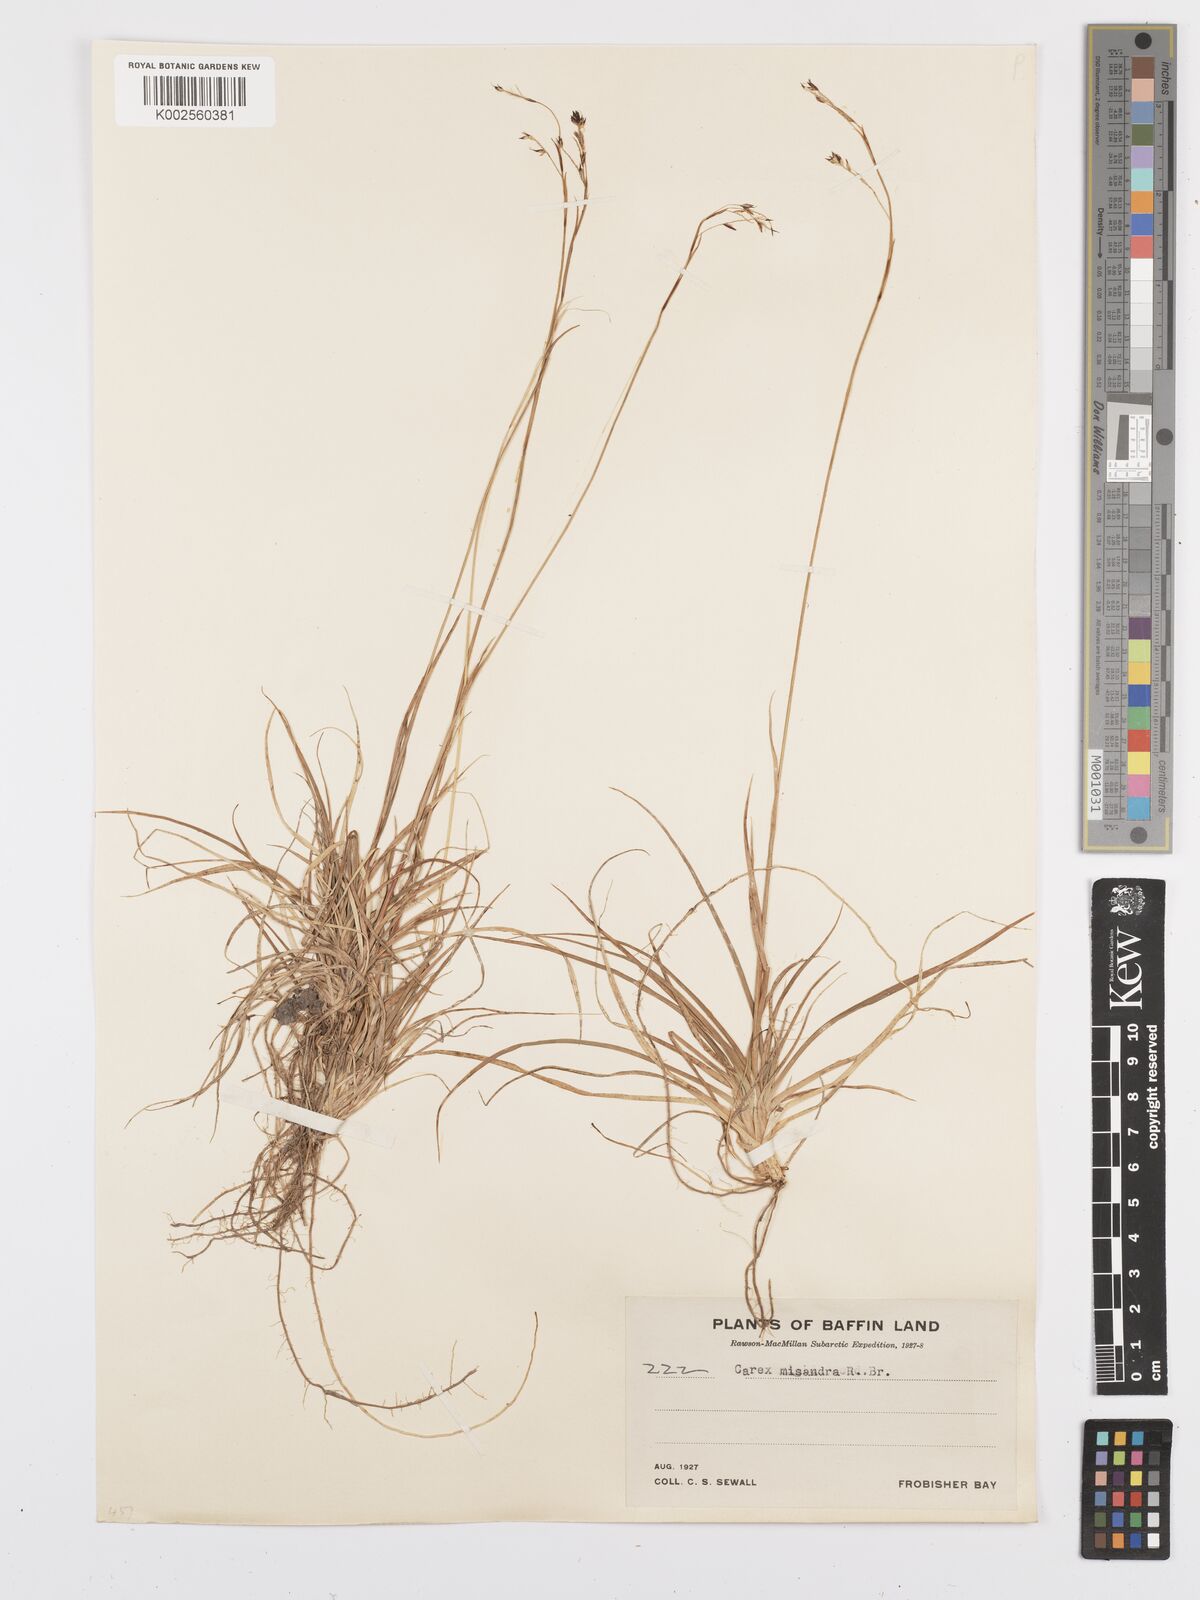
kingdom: Plantae
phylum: Tracheophyta
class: Liliopsida
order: Poales
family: Cyperaceae
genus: Carex
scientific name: Carex fuliginosa
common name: Few-flowered sedge
